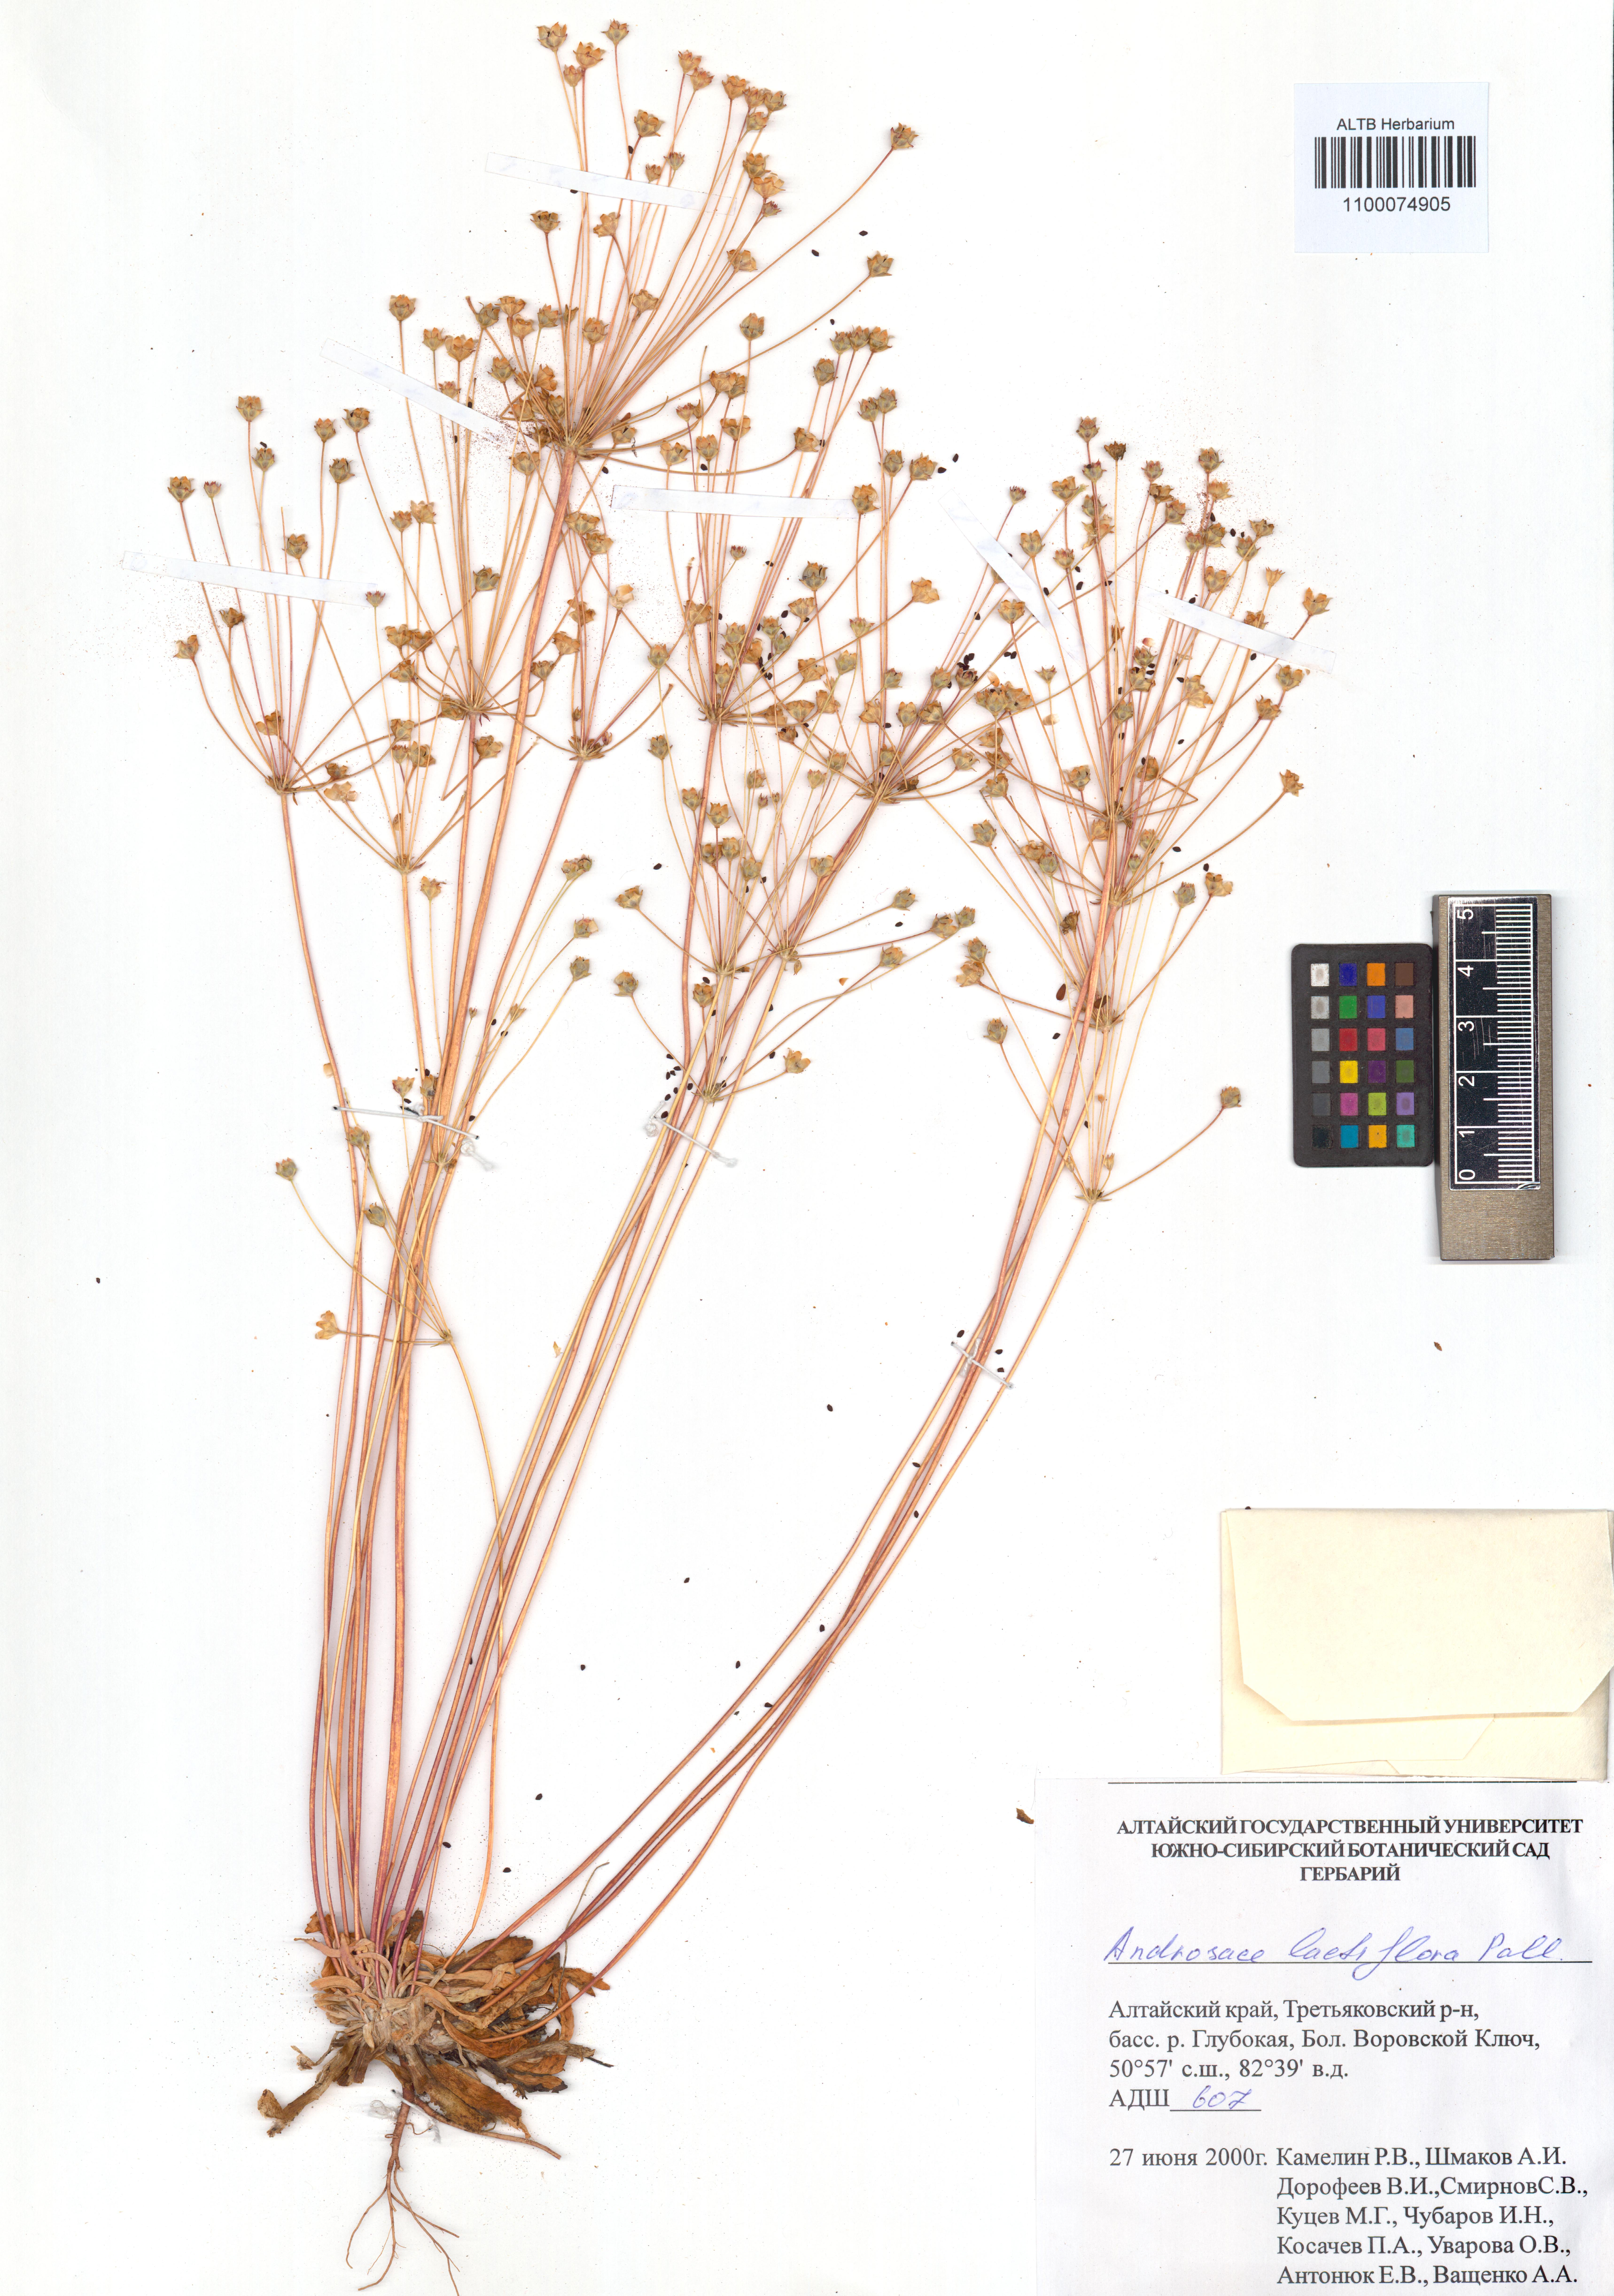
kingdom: Plantae
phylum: Tracheophyta
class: Magnoliopsida
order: Ericales
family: Primulaceae
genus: Androsace
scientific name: Androsace lactiflora
